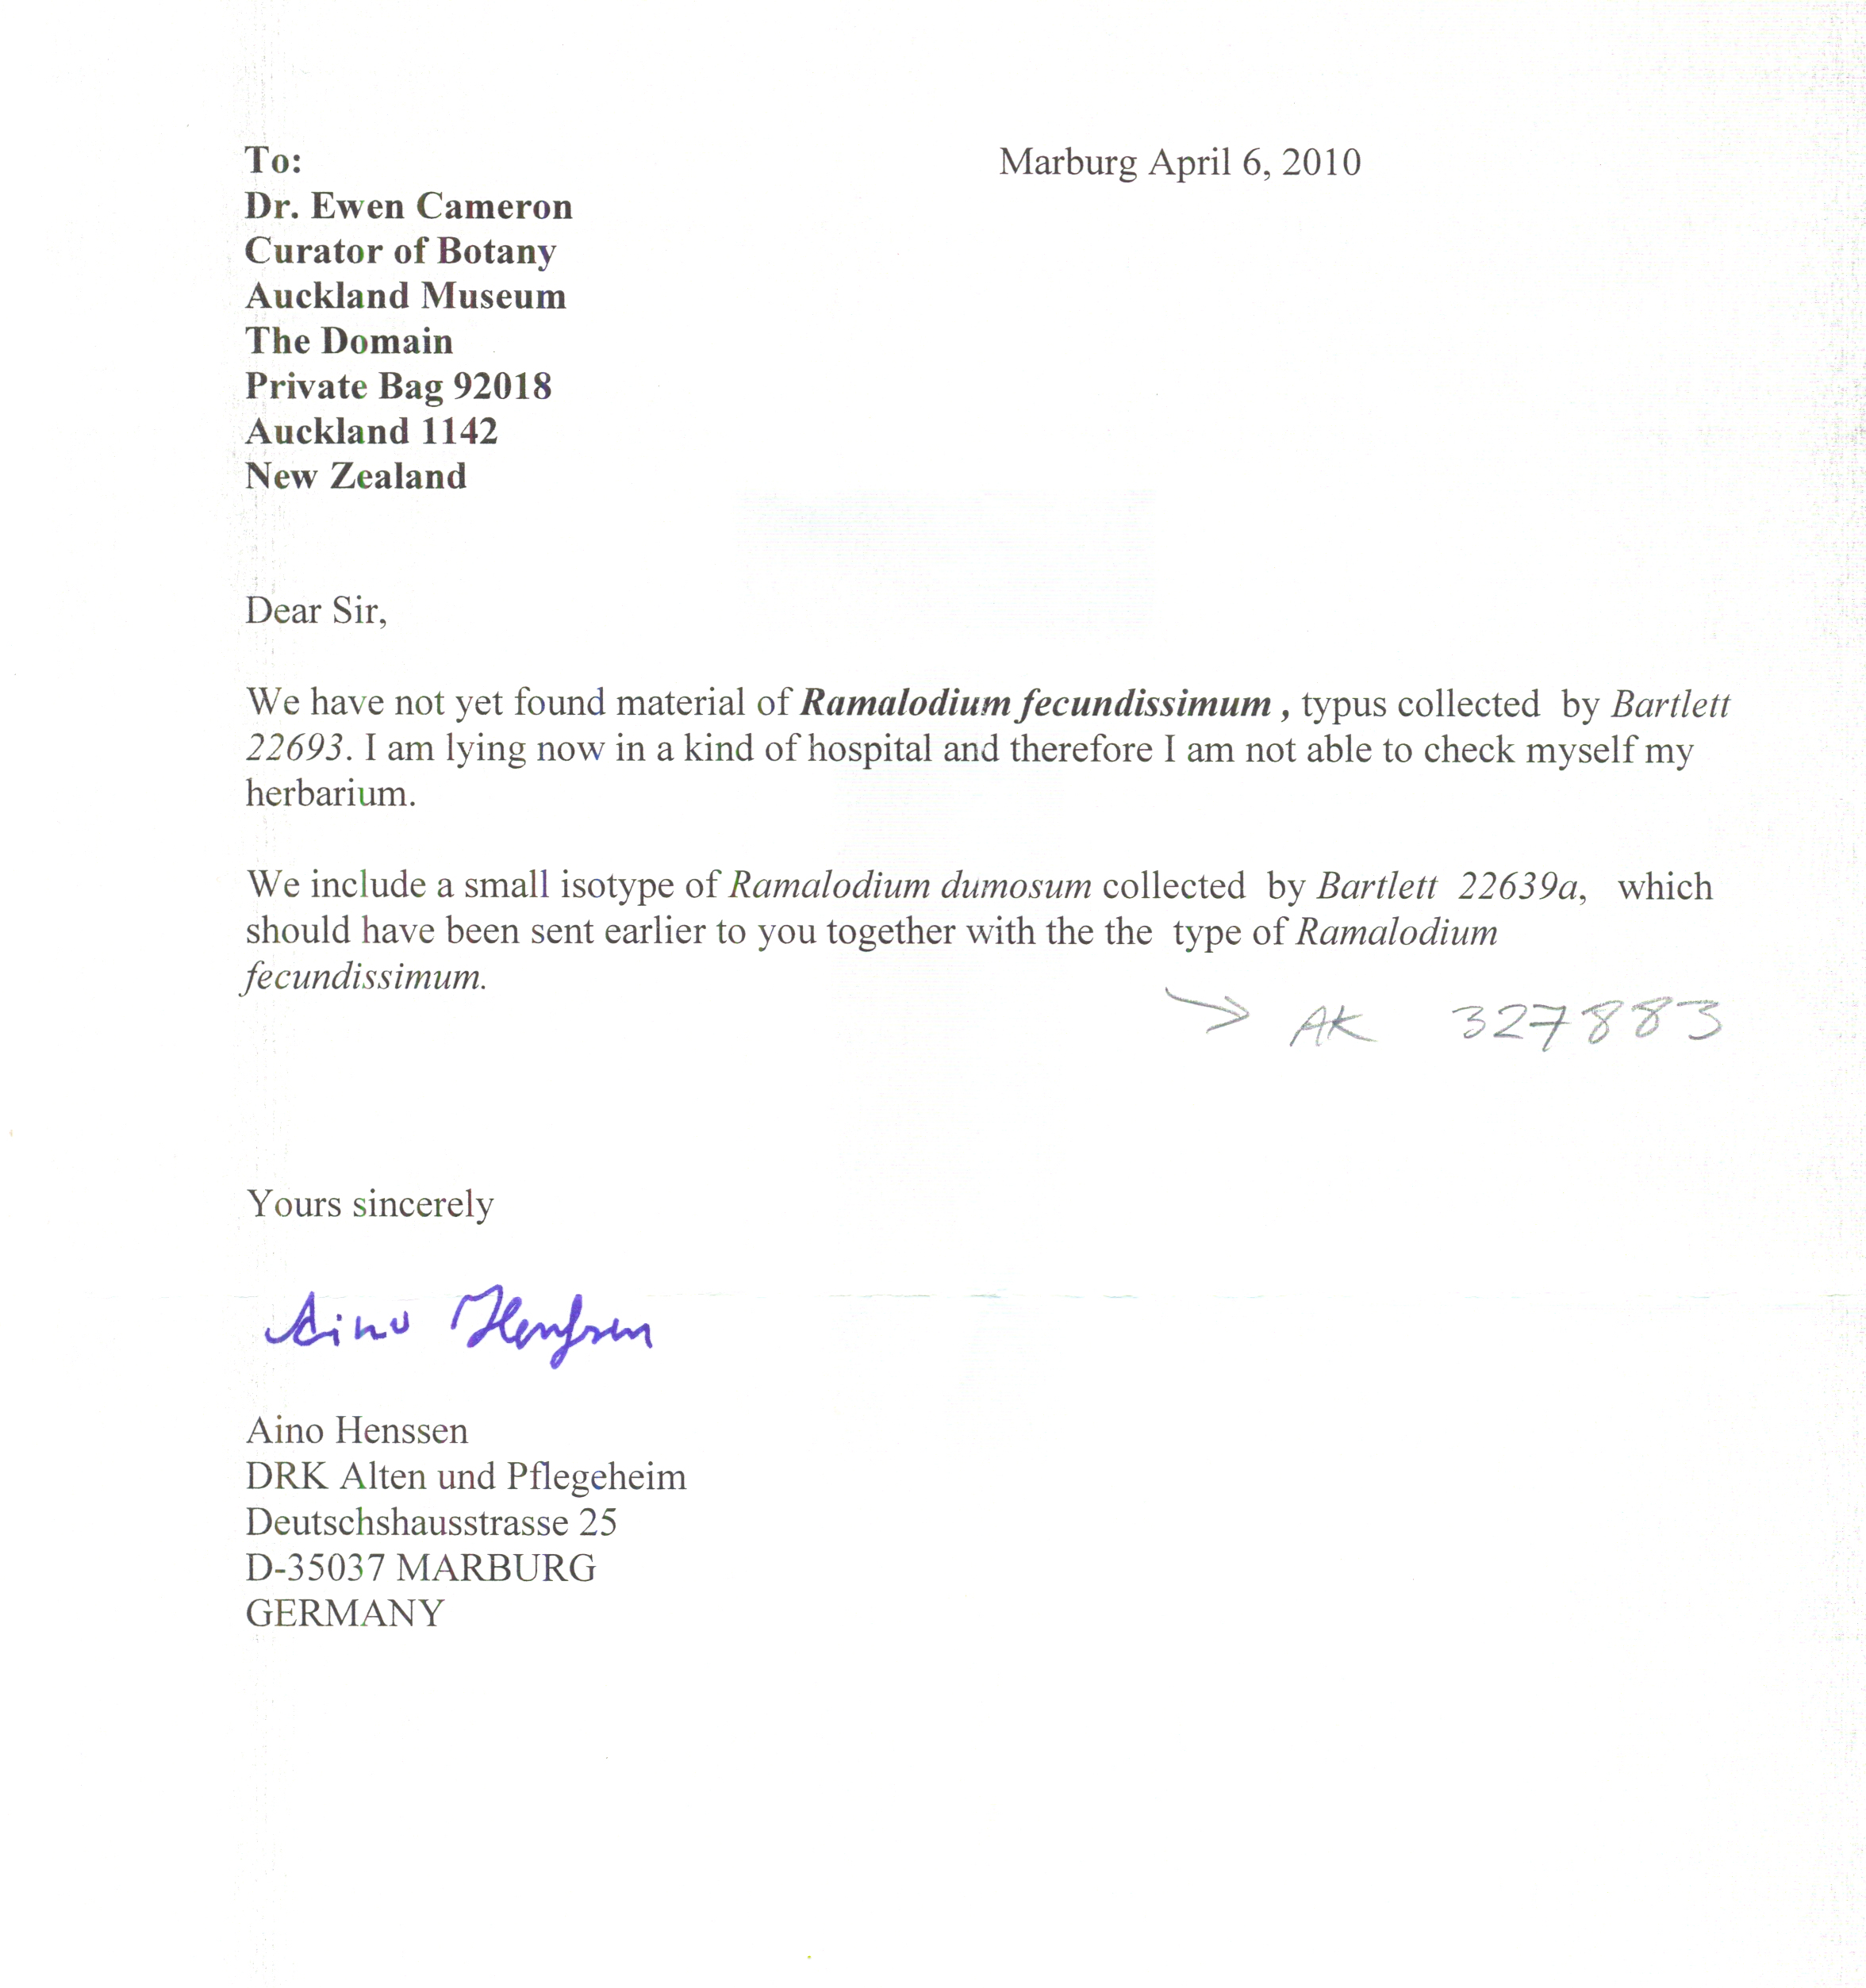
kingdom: Fungi
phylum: Ascomycota
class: Lecanoromycetes
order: Peltigerales
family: Collemataceae
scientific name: Collemataceae
